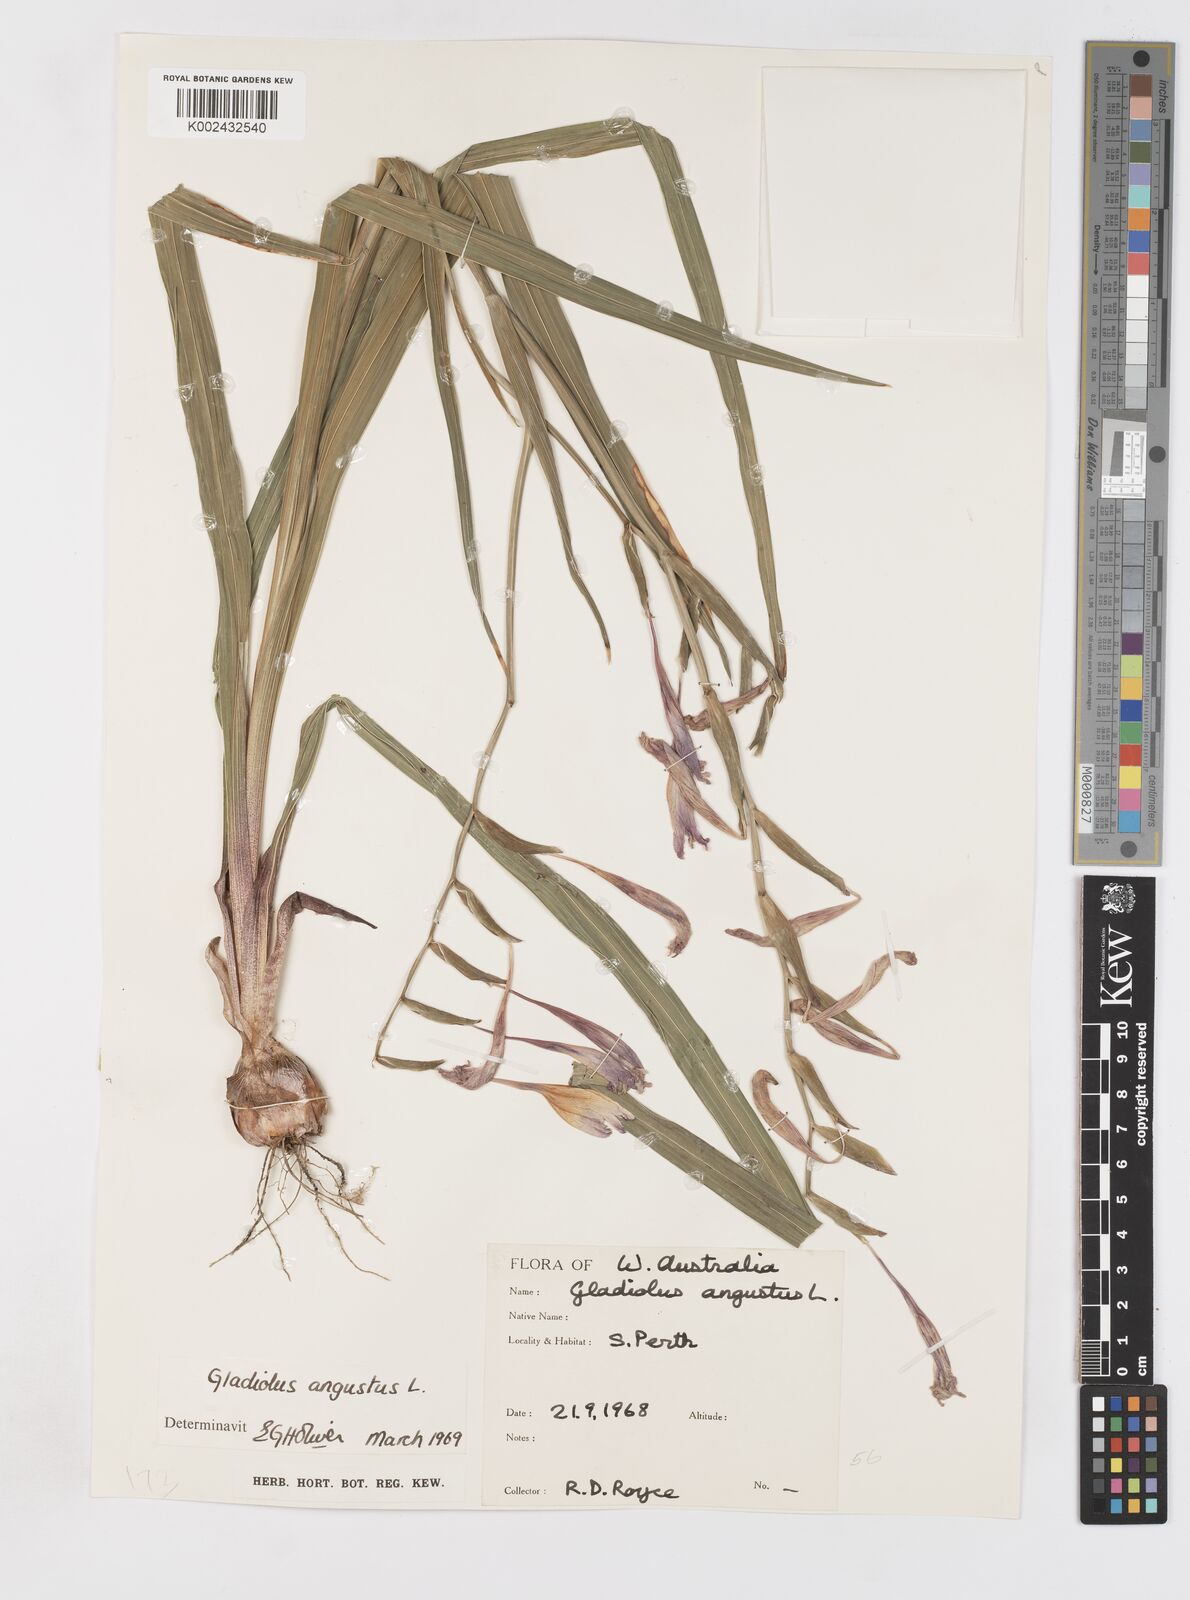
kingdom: Plantae
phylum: Tracheophyta
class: Liliopsida
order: Asparagales
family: Iridaceae
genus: Gladiolus
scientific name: Gladiolus angustus
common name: Painted-lady
